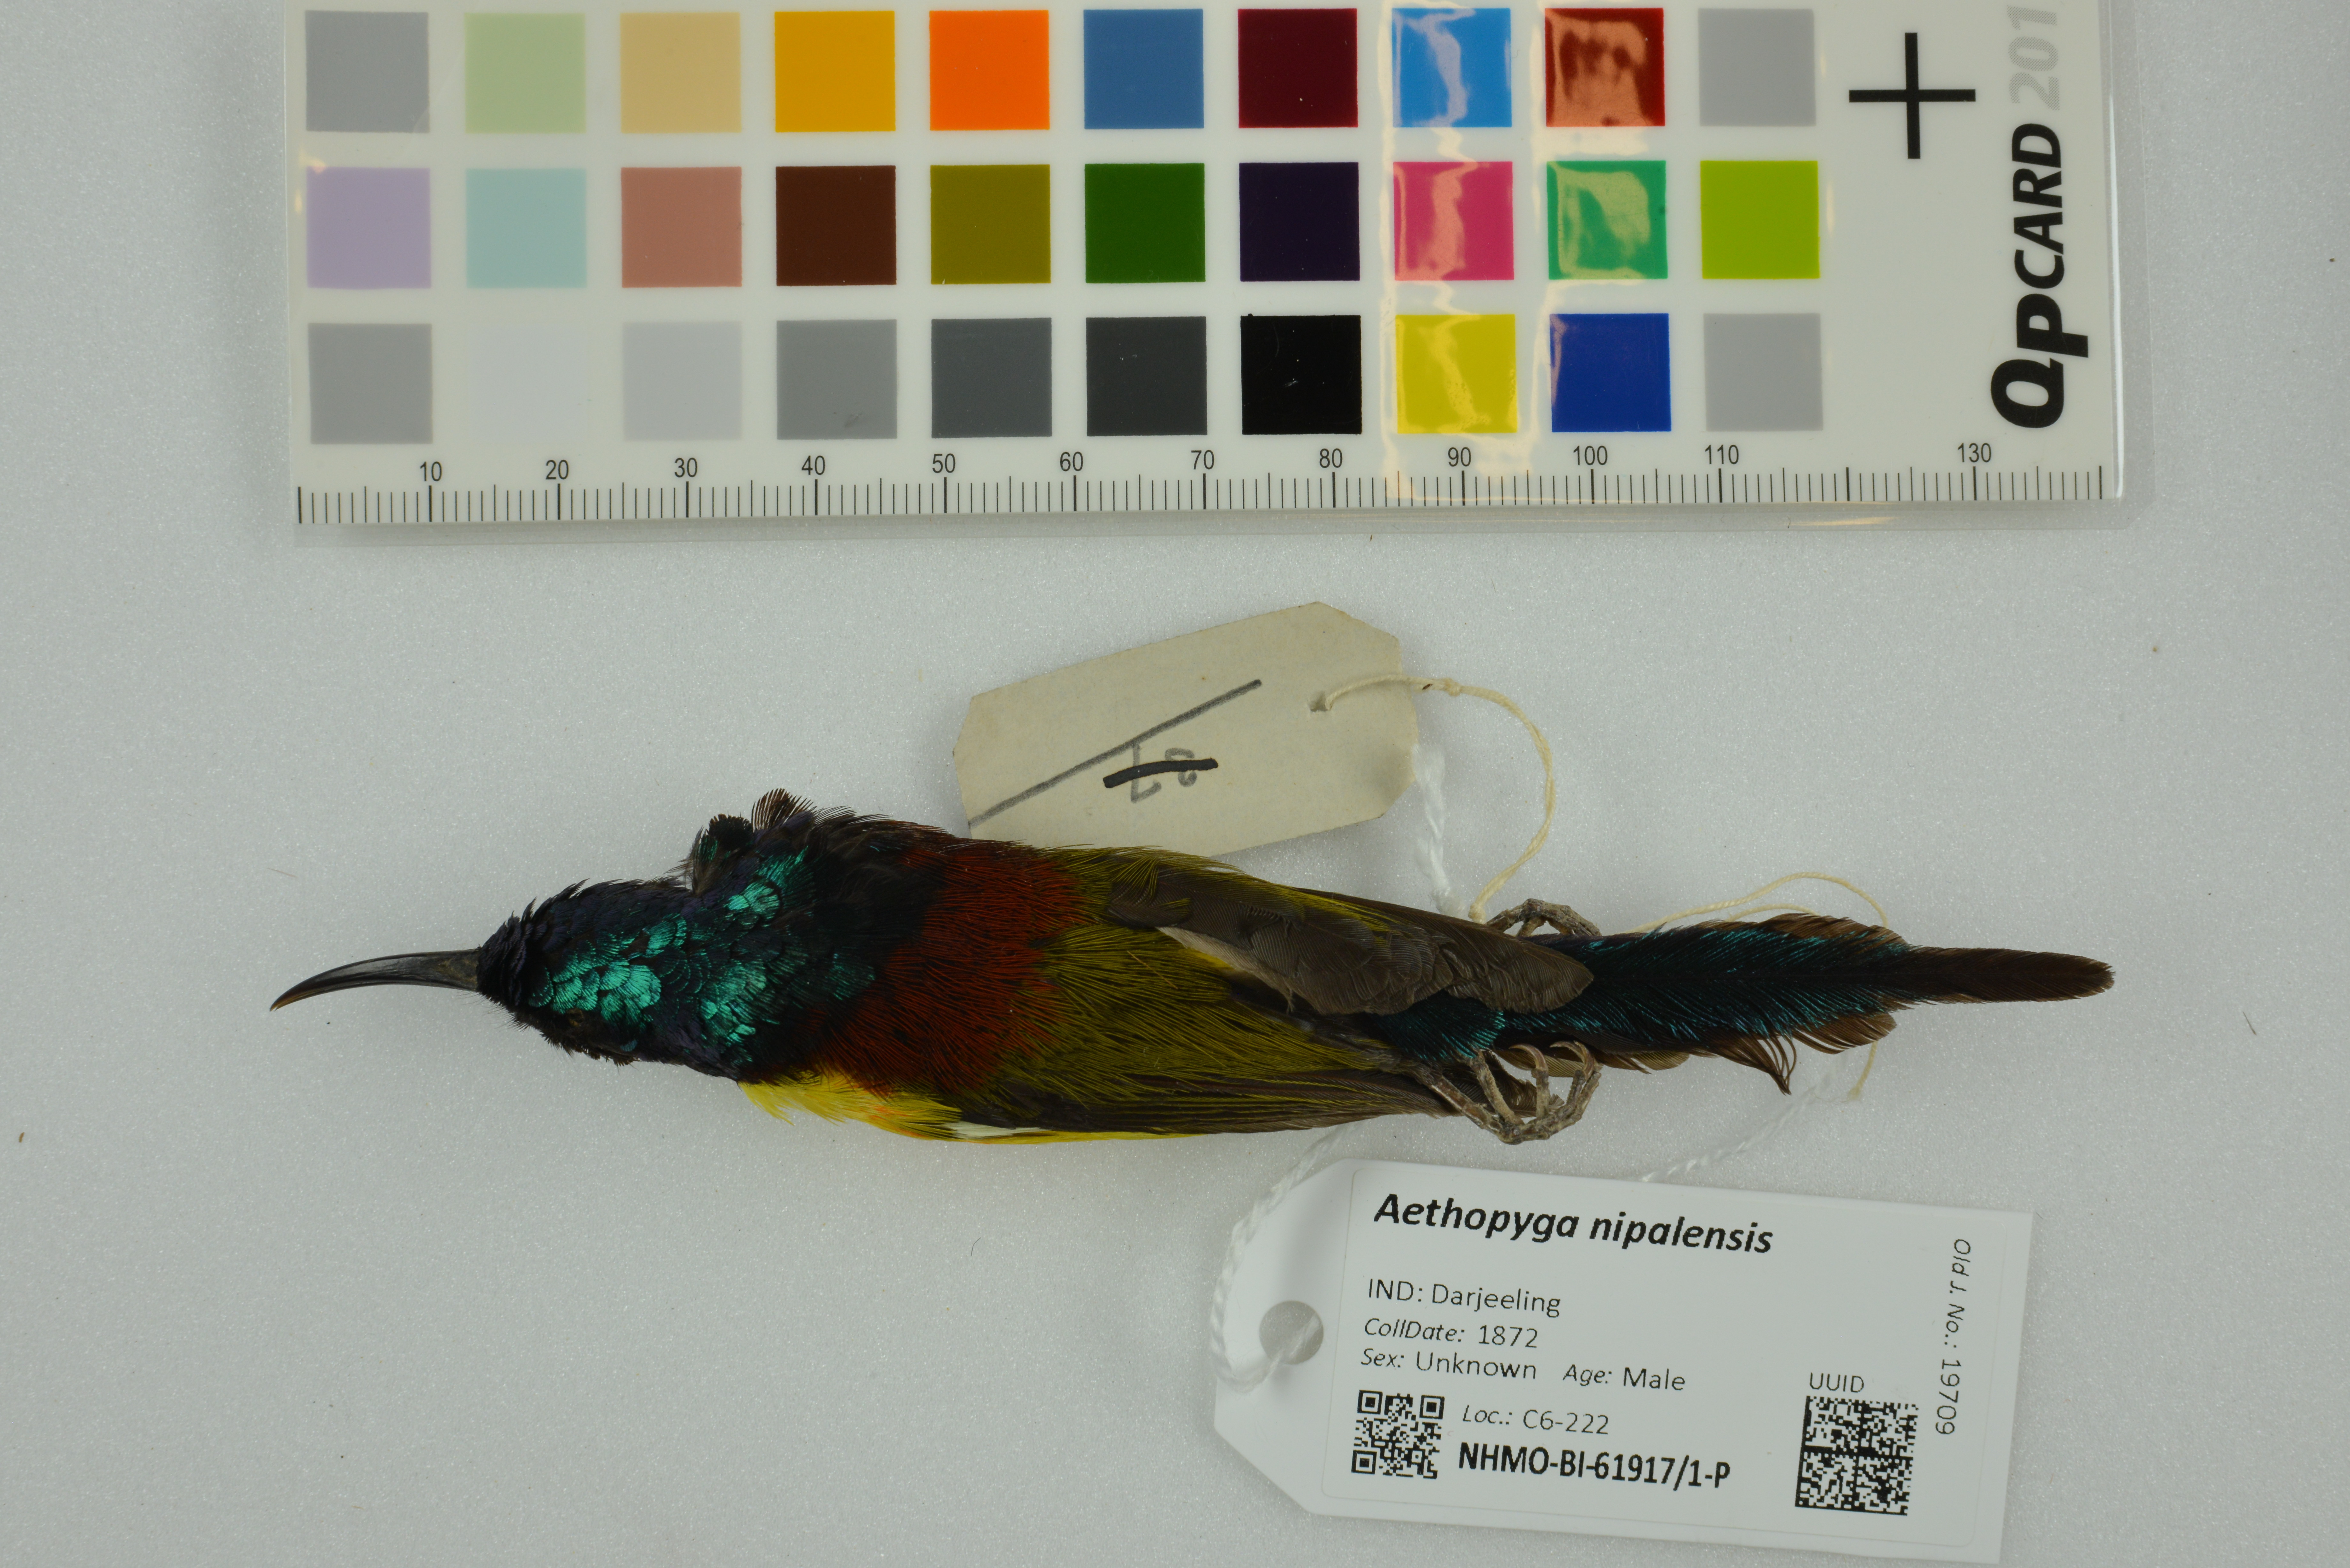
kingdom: Animalia
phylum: Chordata
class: Aves
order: Passeriformes
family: Nectariniidae
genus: Aethopyga
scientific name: Aethopyga nipalensis
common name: Green-tailed sunbird
